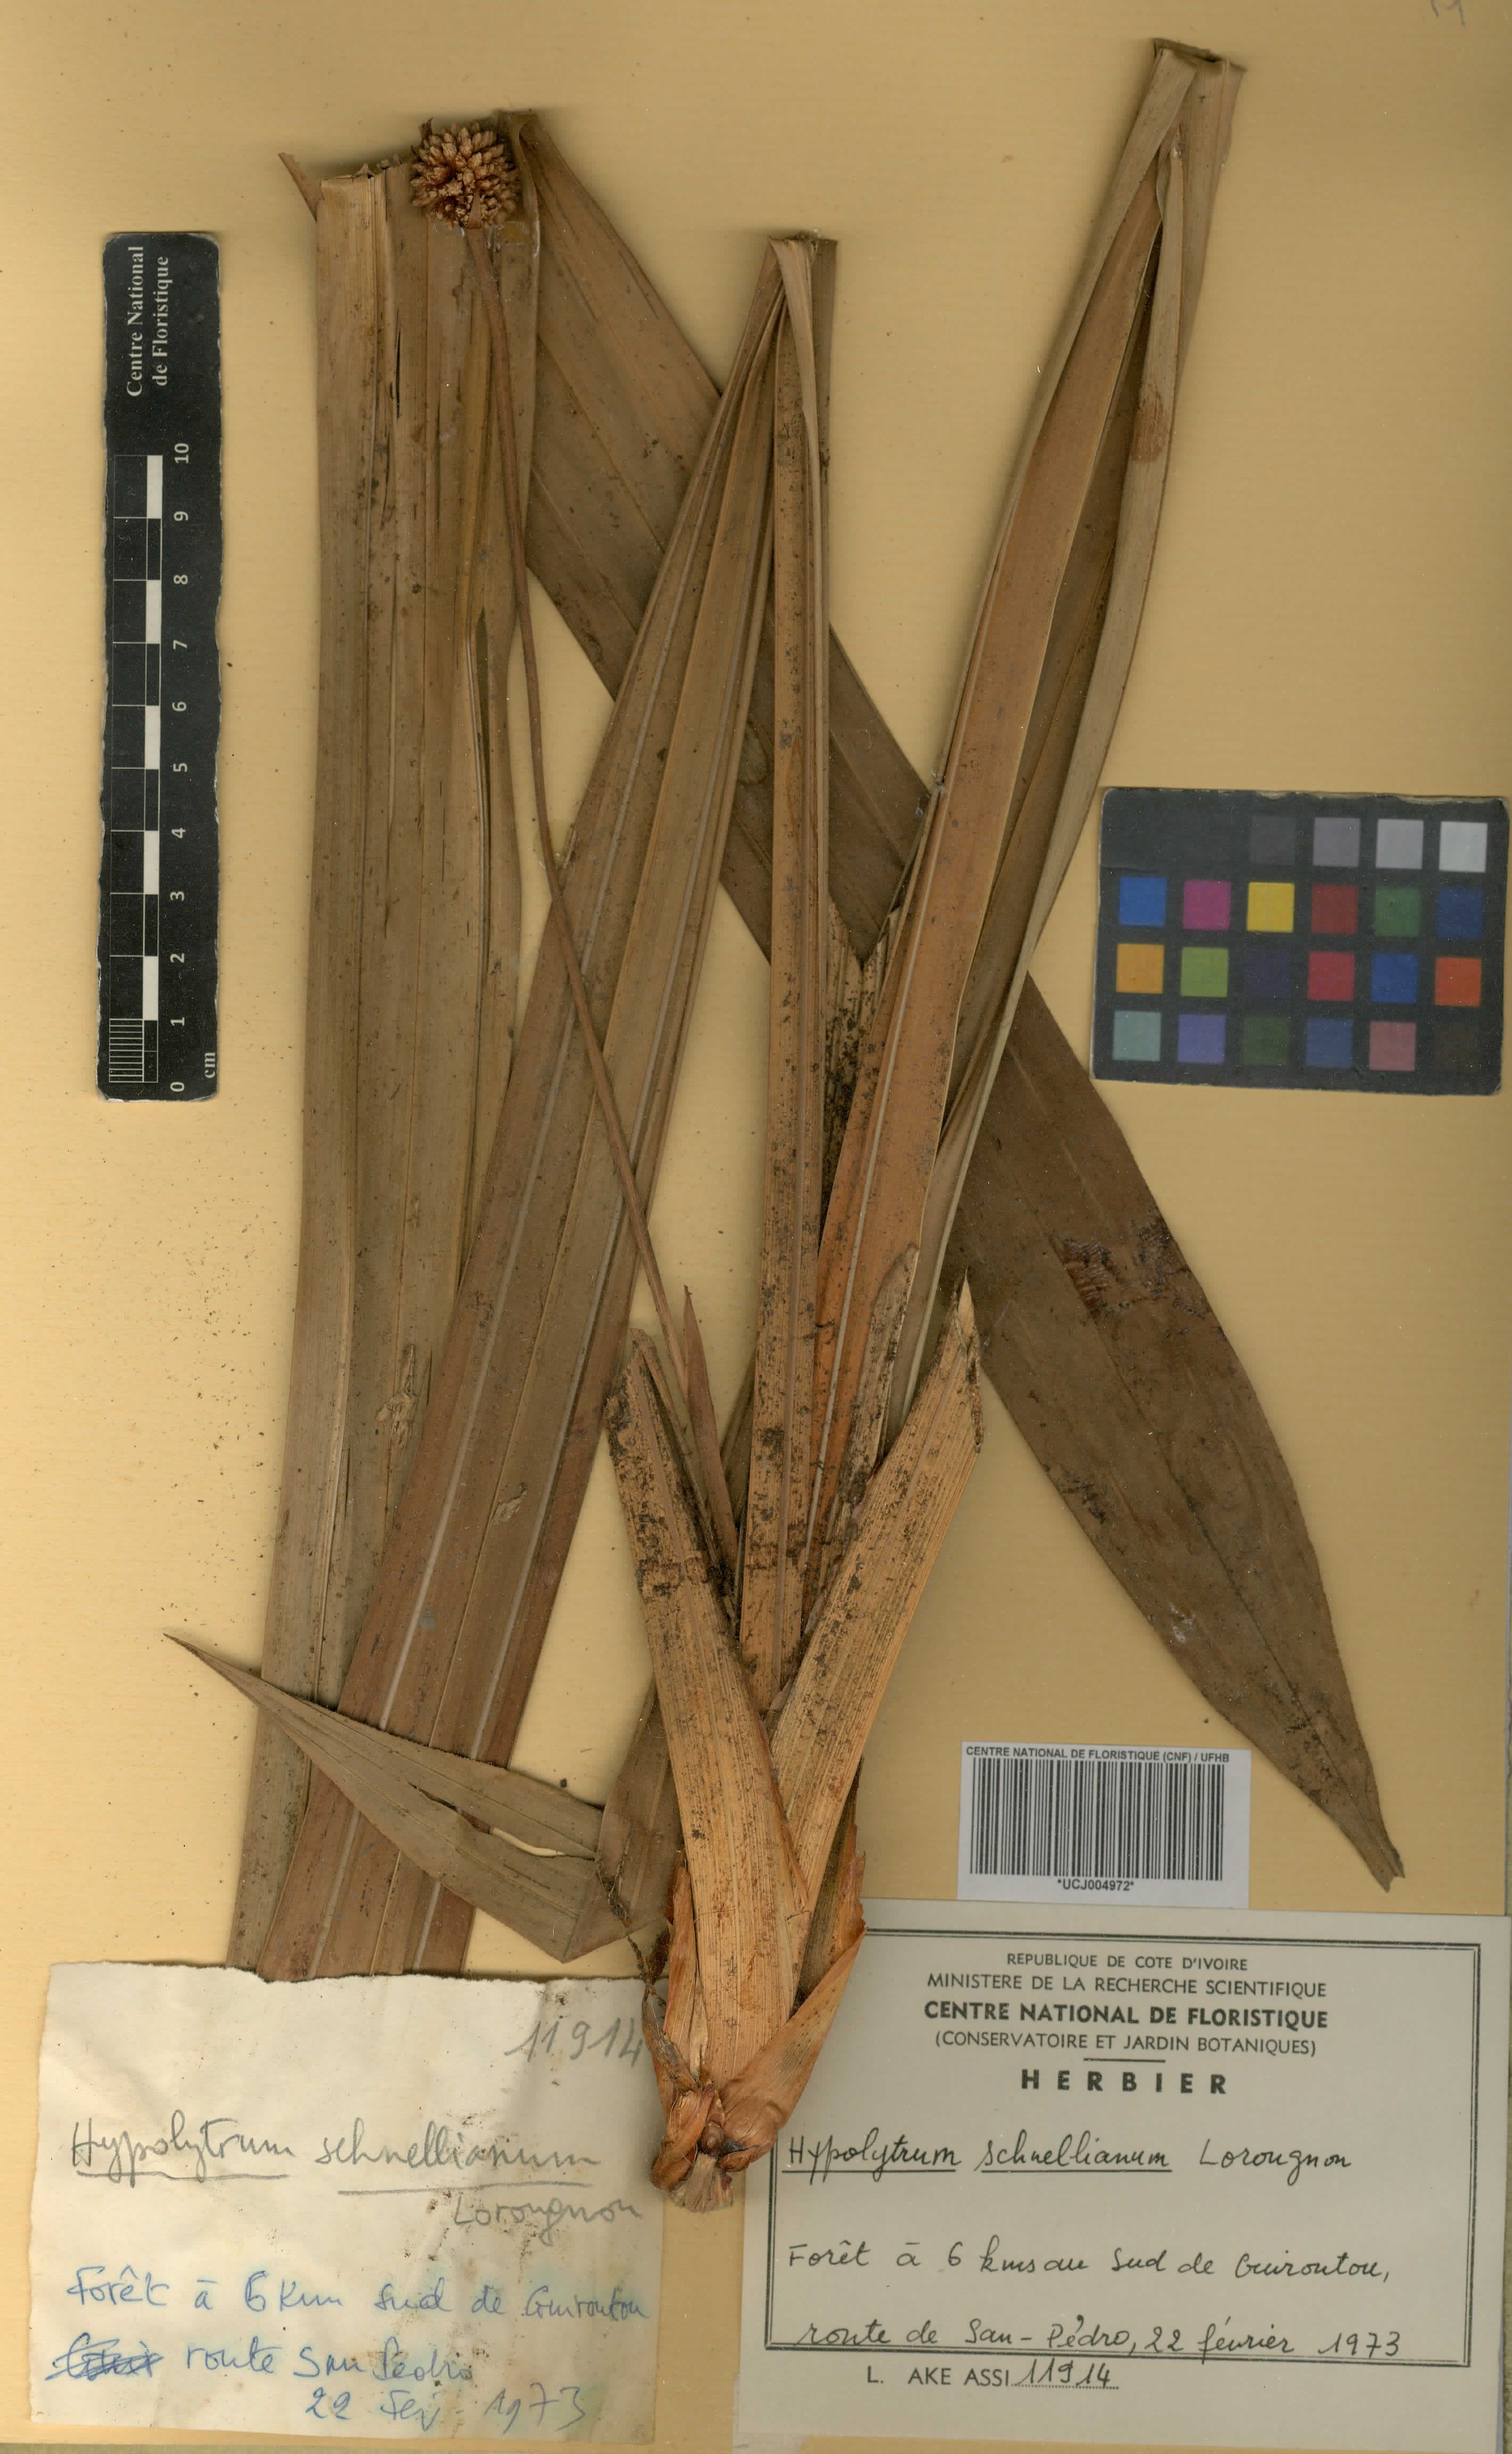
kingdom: Plantae
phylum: Tracheophyta
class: Liliopsida
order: Poales
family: Cyperaceae
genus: Hypolytrum
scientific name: Hypolytrum schnellianum
